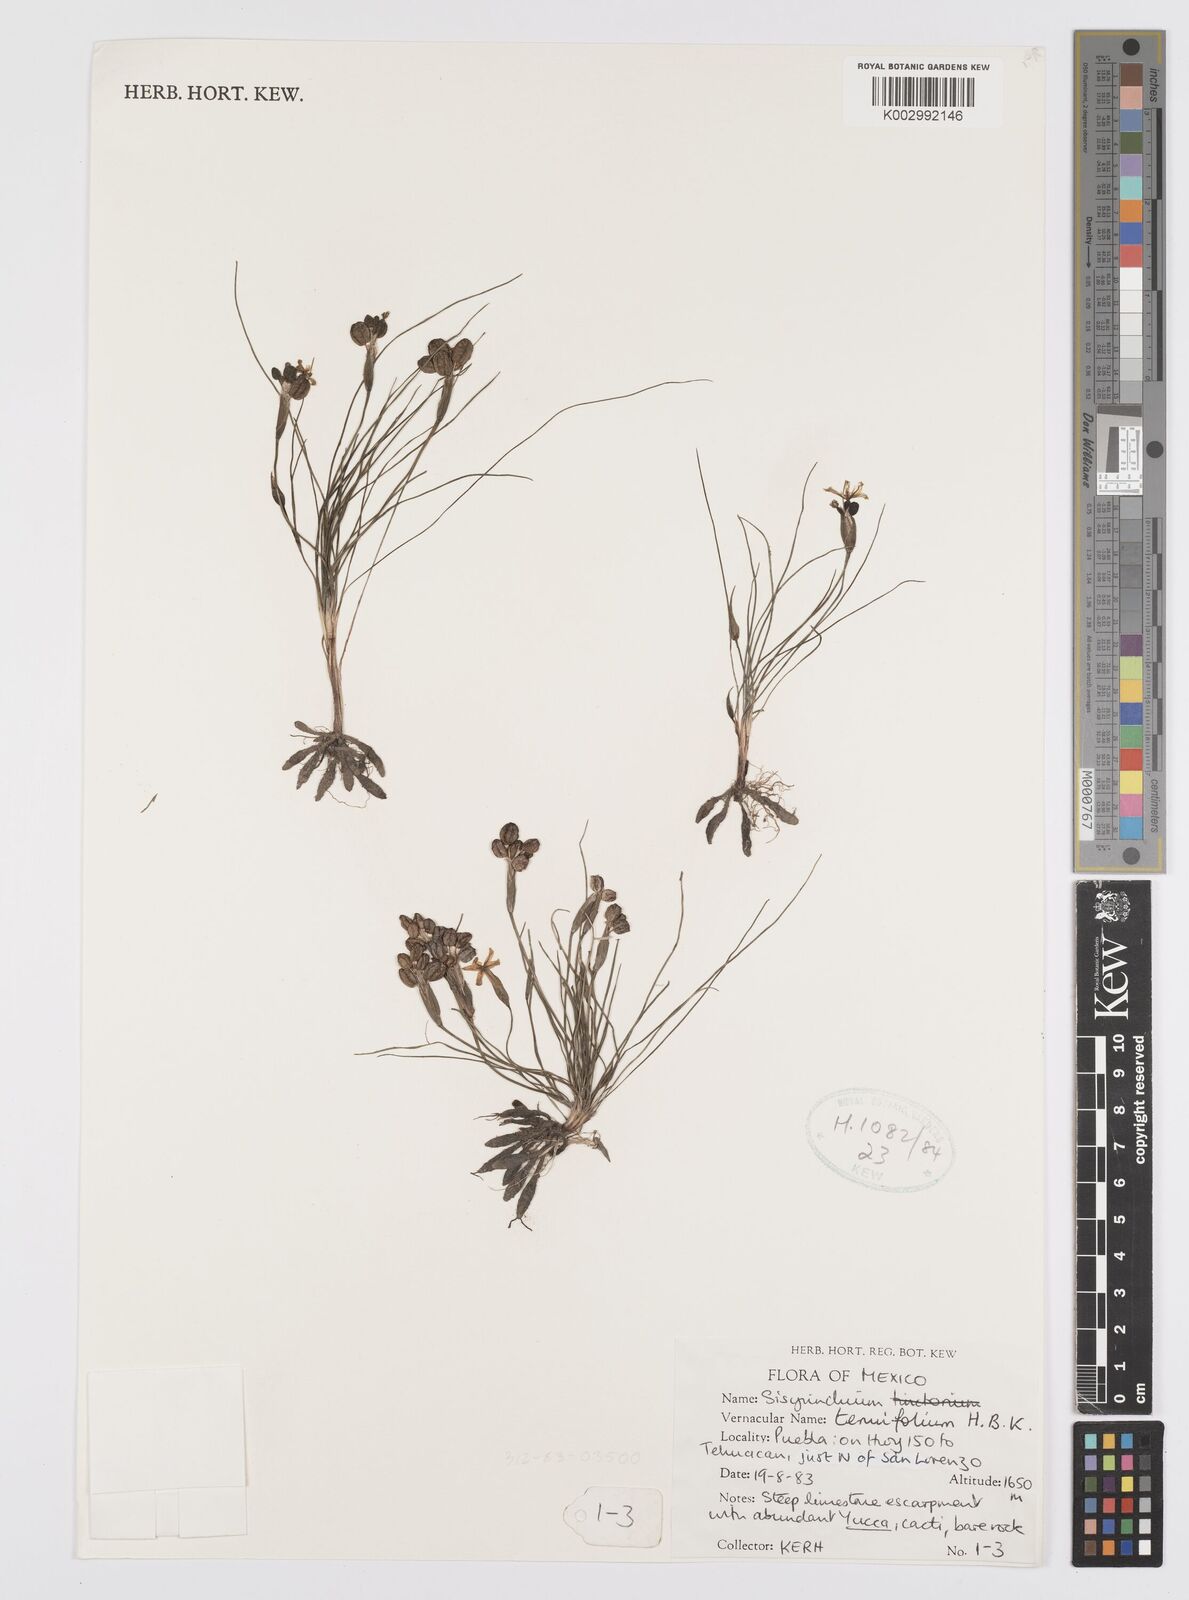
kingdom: Plantae
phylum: Tracheophyta
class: Liliopsida
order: Asparagales
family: Iridaceae
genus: Sisyrinchium
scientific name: Sisyrinchium langloisii
